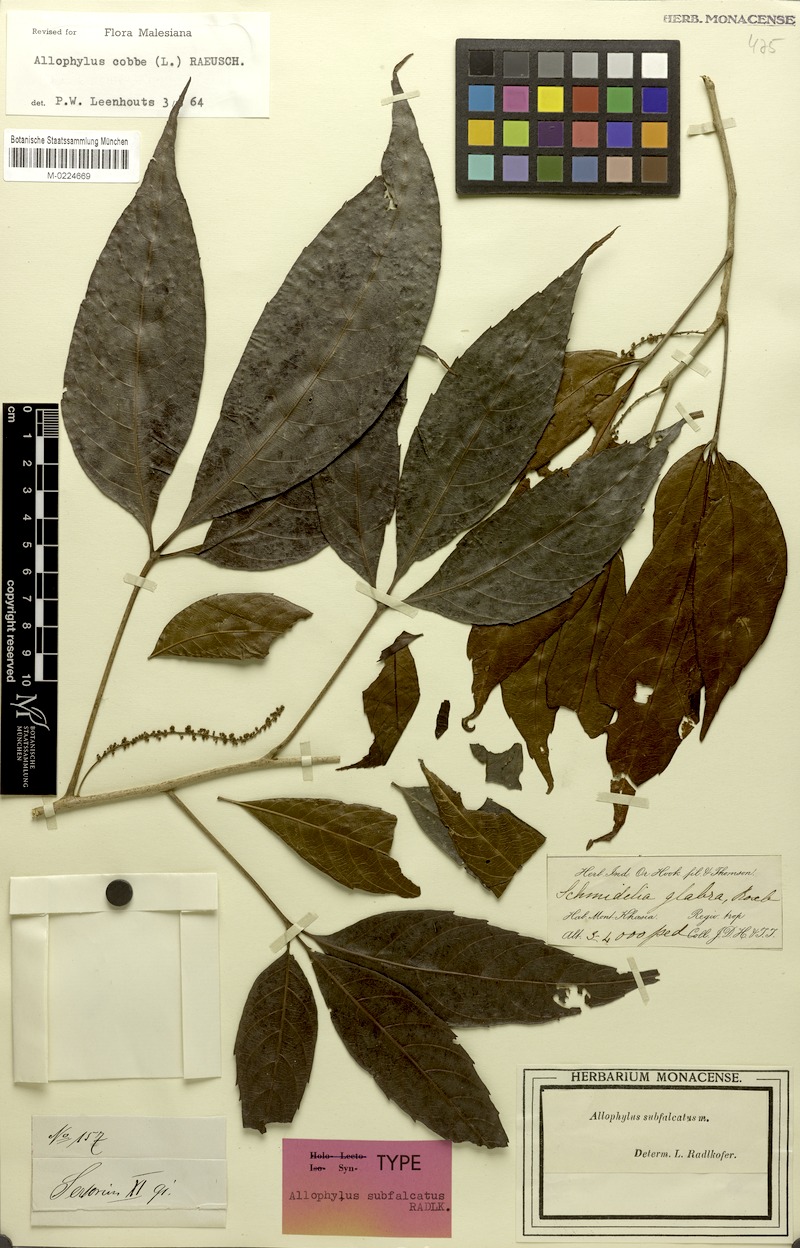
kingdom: Plantae
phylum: Tracheophyta
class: Magnoliopsida
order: Sapindales
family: Sapindaceae
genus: Allophylus
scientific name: Allophylus subfalcatus
